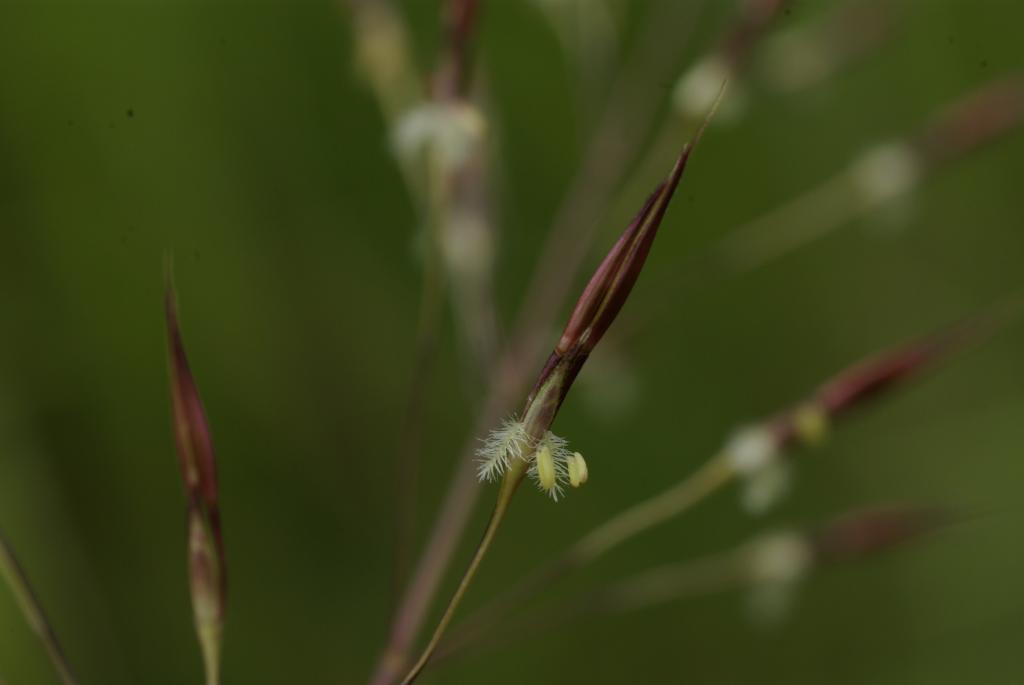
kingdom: Plantae
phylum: Tracheophyta
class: Liliopsida
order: Poales
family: Poaceae
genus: Chrysopogon
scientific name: Chrysopogon aciculatus
